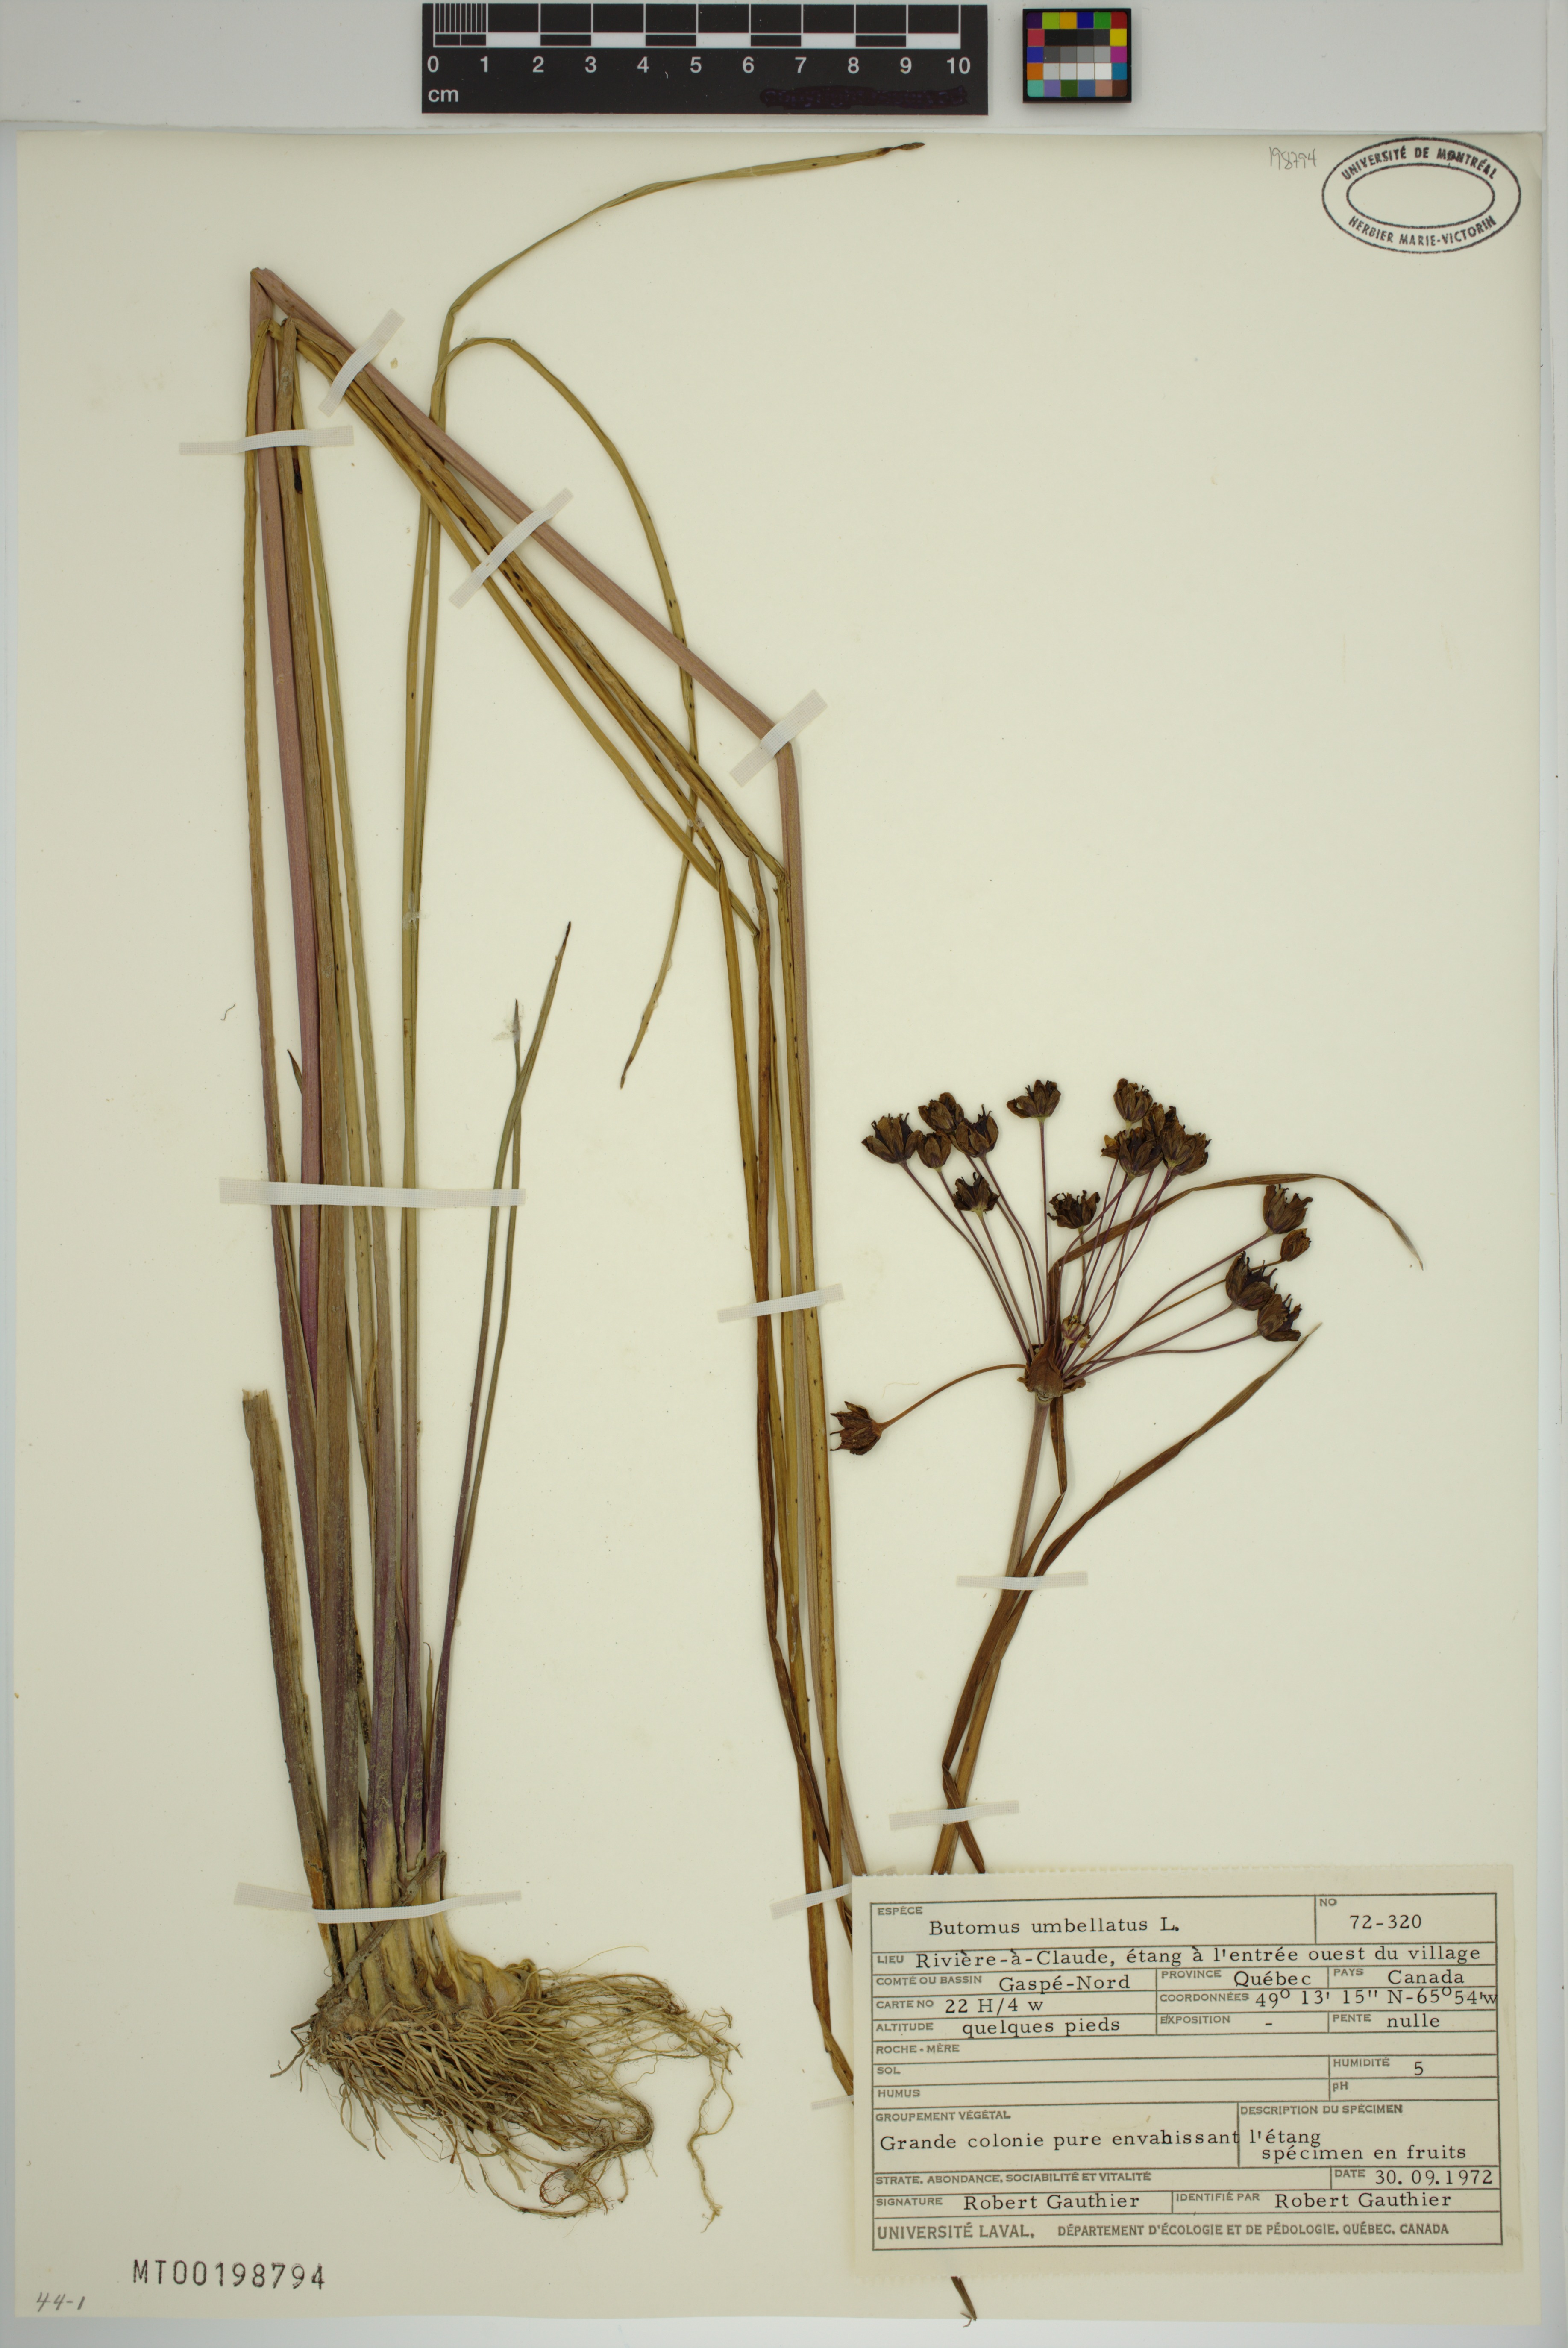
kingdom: Plantae
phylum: Tracheophyta
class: Liliopsida
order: Alismatales
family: Butomaceae
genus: Butomus
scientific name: Butomus umbellatus
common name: Flowering-rush
